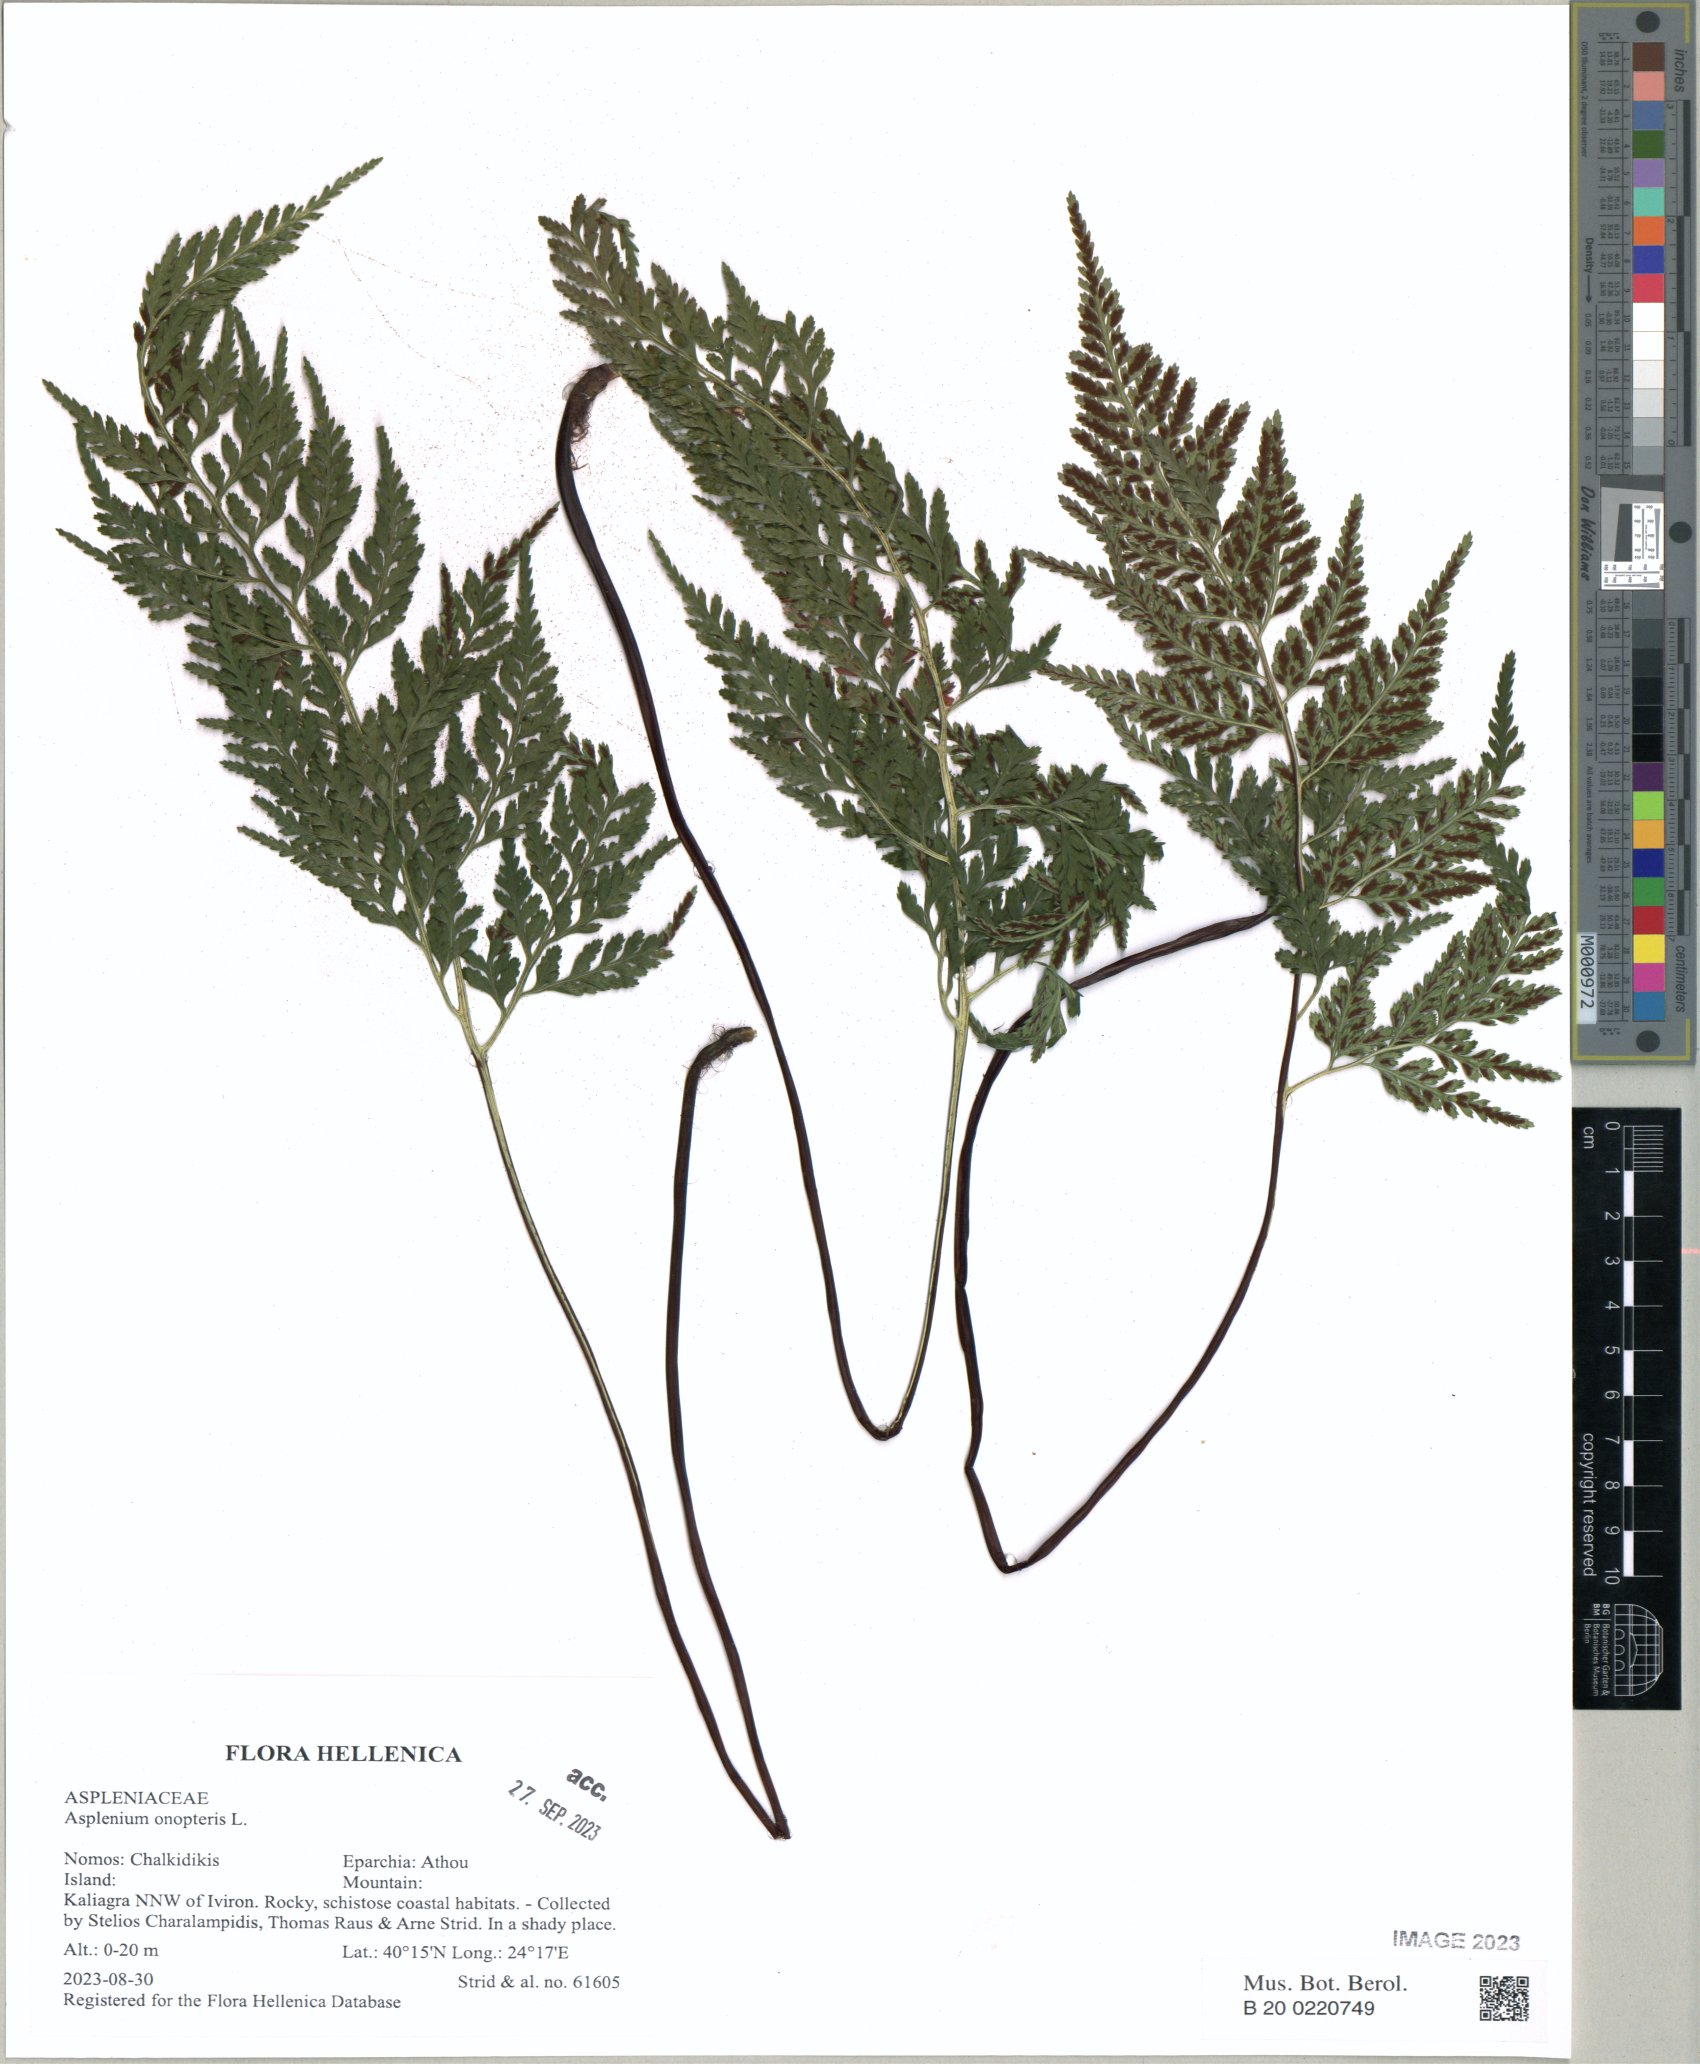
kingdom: Plantae
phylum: Tracheophyta
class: Polypodiopsida
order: Polypodiales
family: Aspleniaceae
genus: Asplenium
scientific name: Asplenium onopteris
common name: Irish spleenwort
